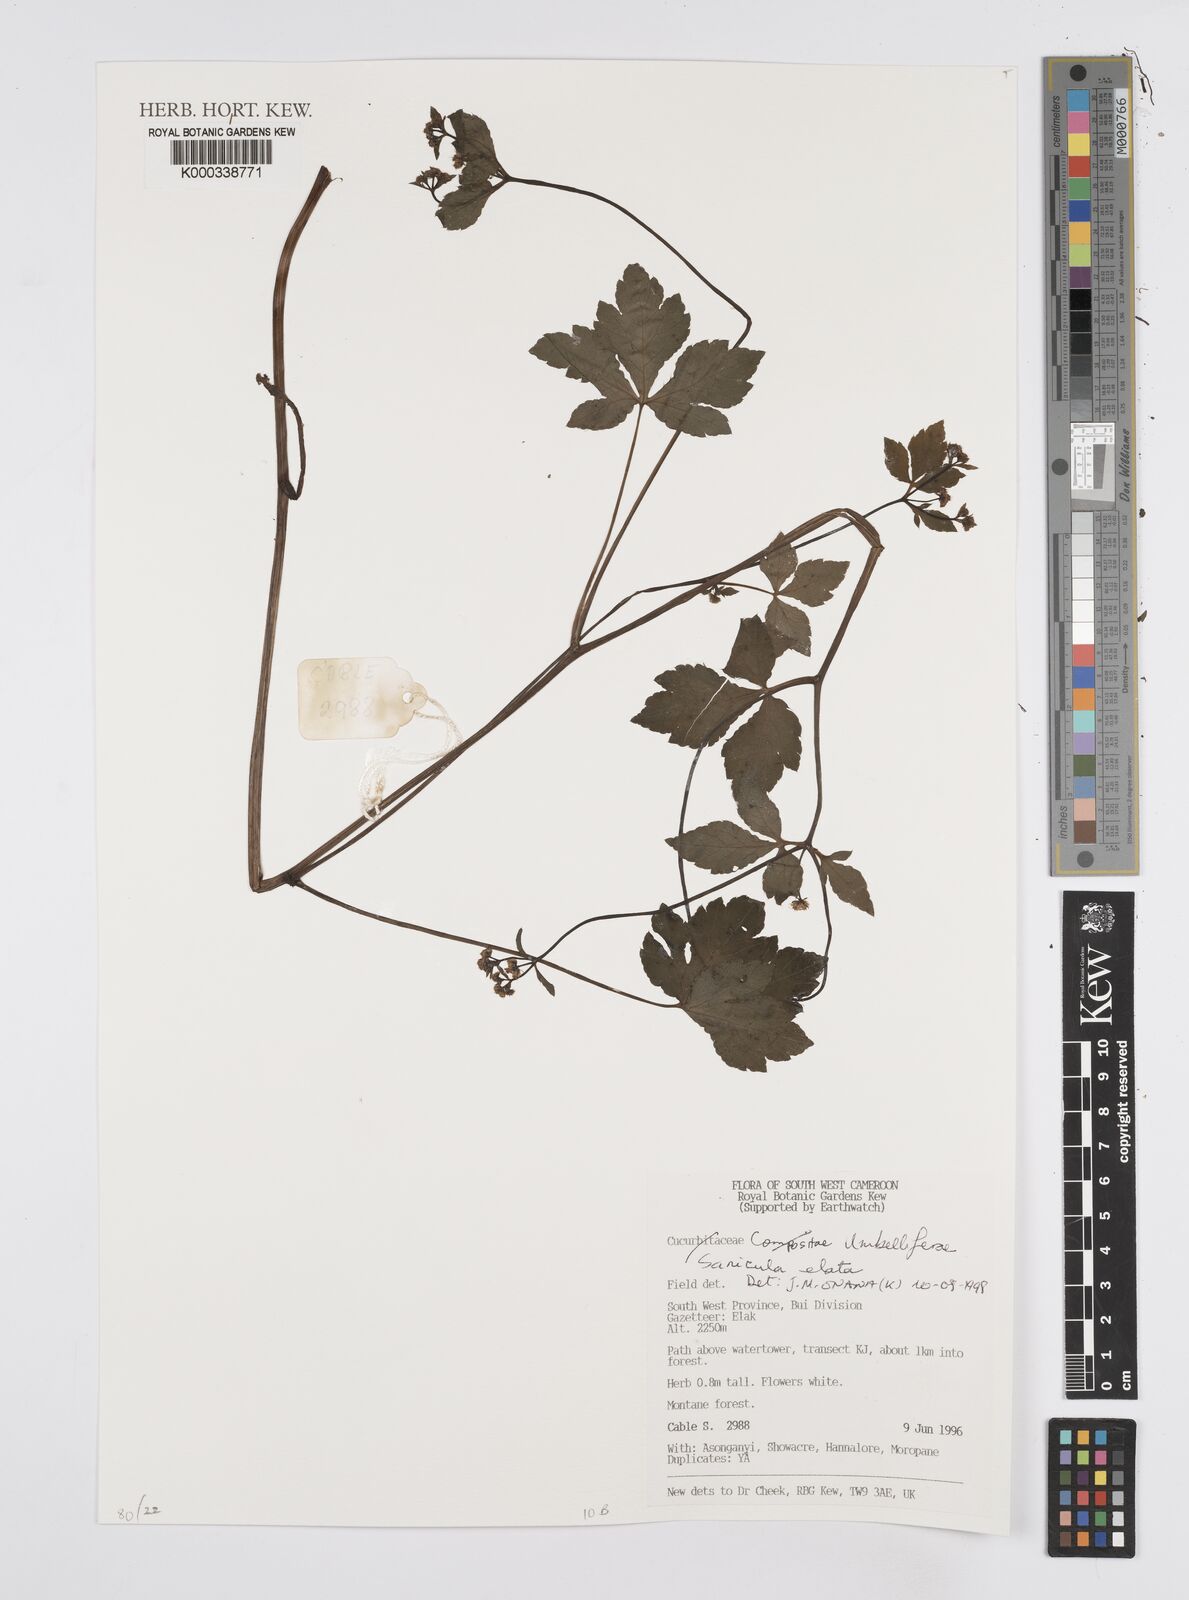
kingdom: Plantae
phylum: Tracheophyta
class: Magnoliopsida
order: Apiales
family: Apiaceae
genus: Sanicula
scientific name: Sanicula
